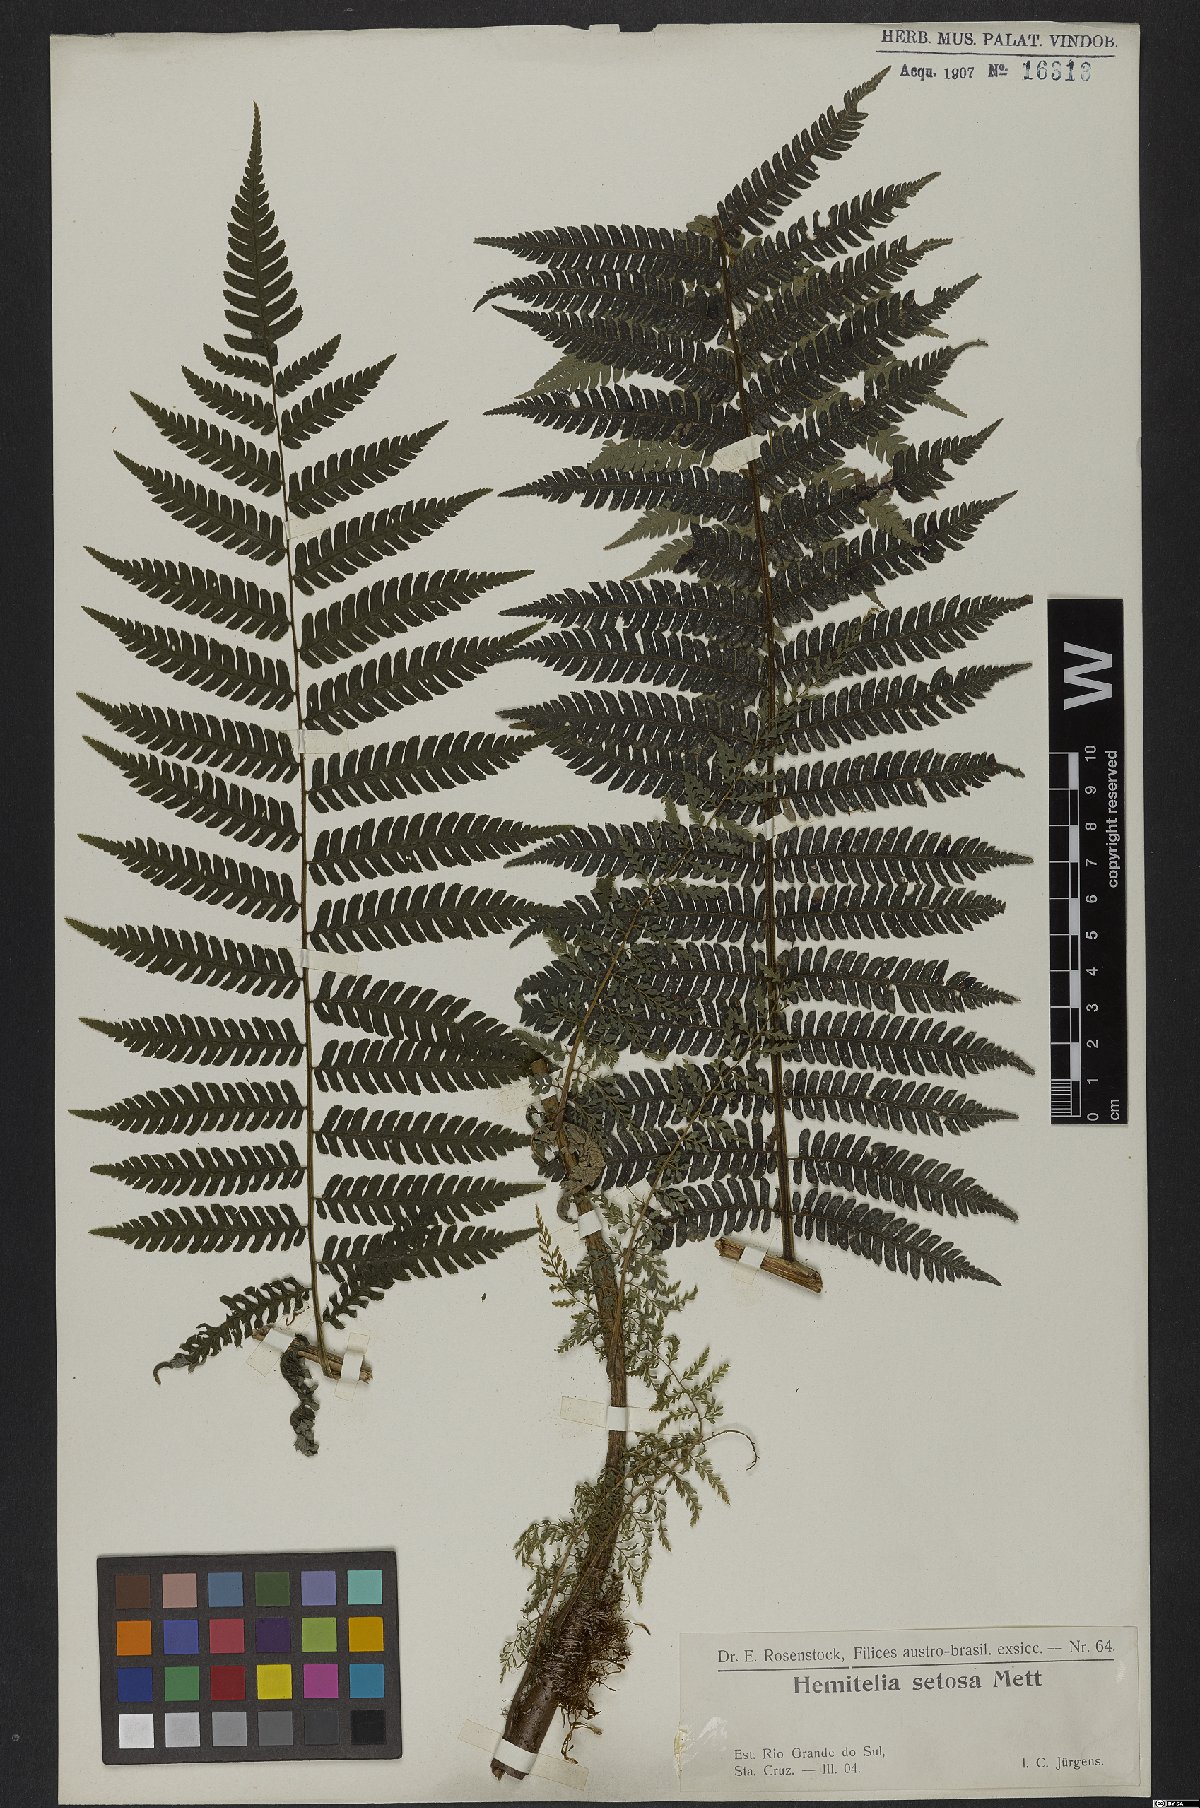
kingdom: Plantae
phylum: Tracheophyta
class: Polypodiopsida
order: Cyatheales
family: Cyatheaceae
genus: Alsophila
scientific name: Alsophila setosa
